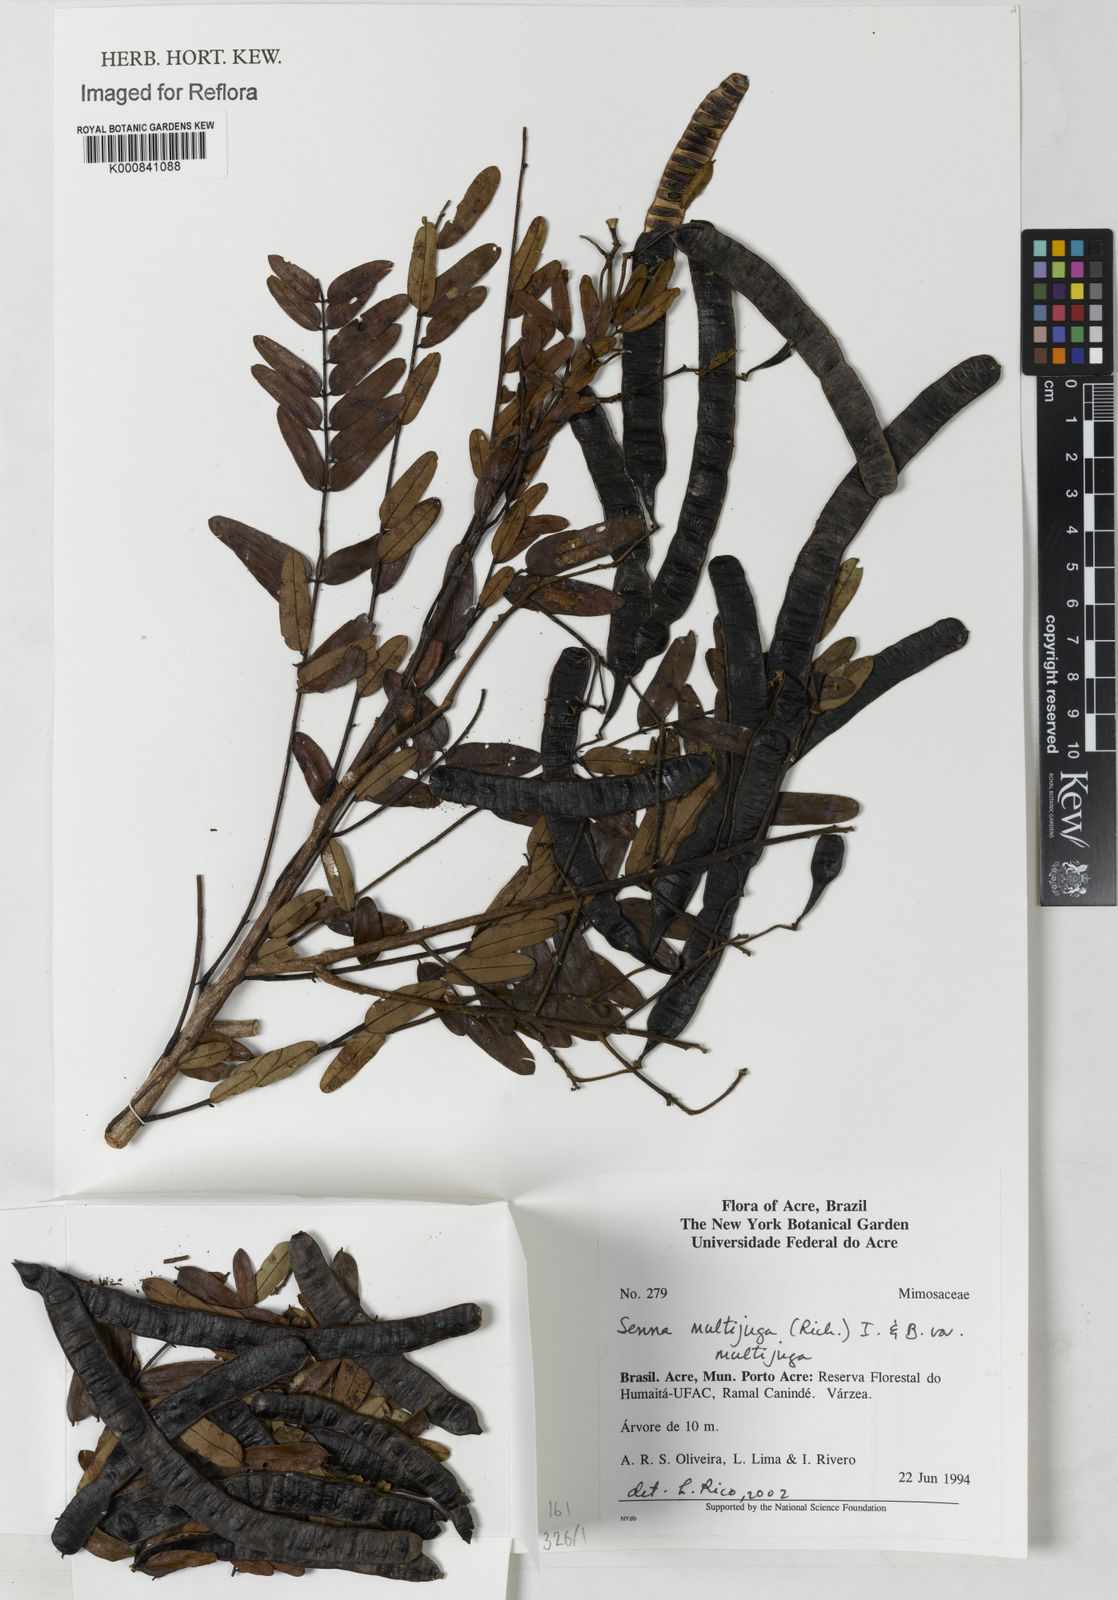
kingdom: Plantae
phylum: Tracheophyta
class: Magnoliopsida
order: Fabales
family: Fabaceae
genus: Senna
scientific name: Senna multijuga
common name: False sicklepod
